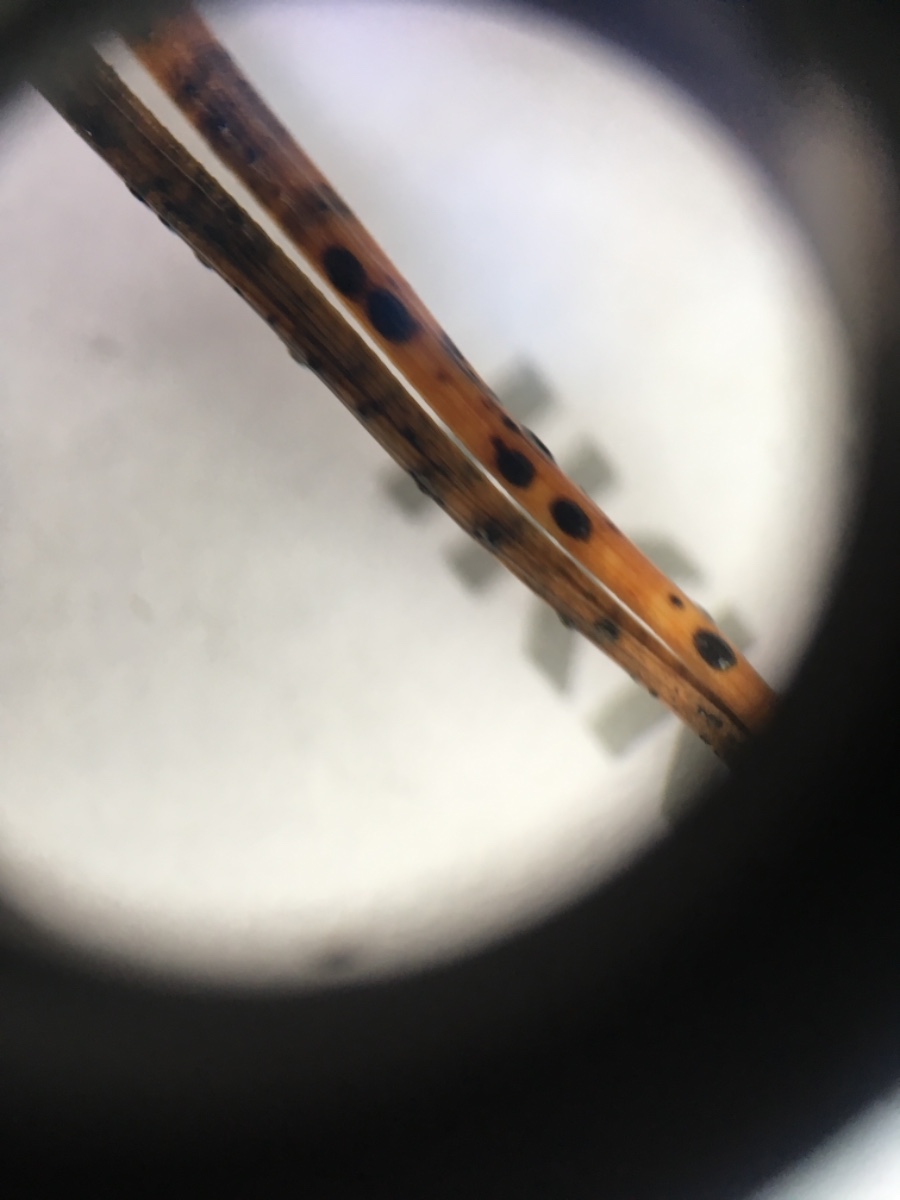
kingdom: Fungi
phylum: Ascomycota
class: Leotiomycetes
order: Rhytismatales
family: Rhytismataceae
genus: Lophodermium
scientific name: Lophodermium pinastri
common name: fyrre-fureplet
